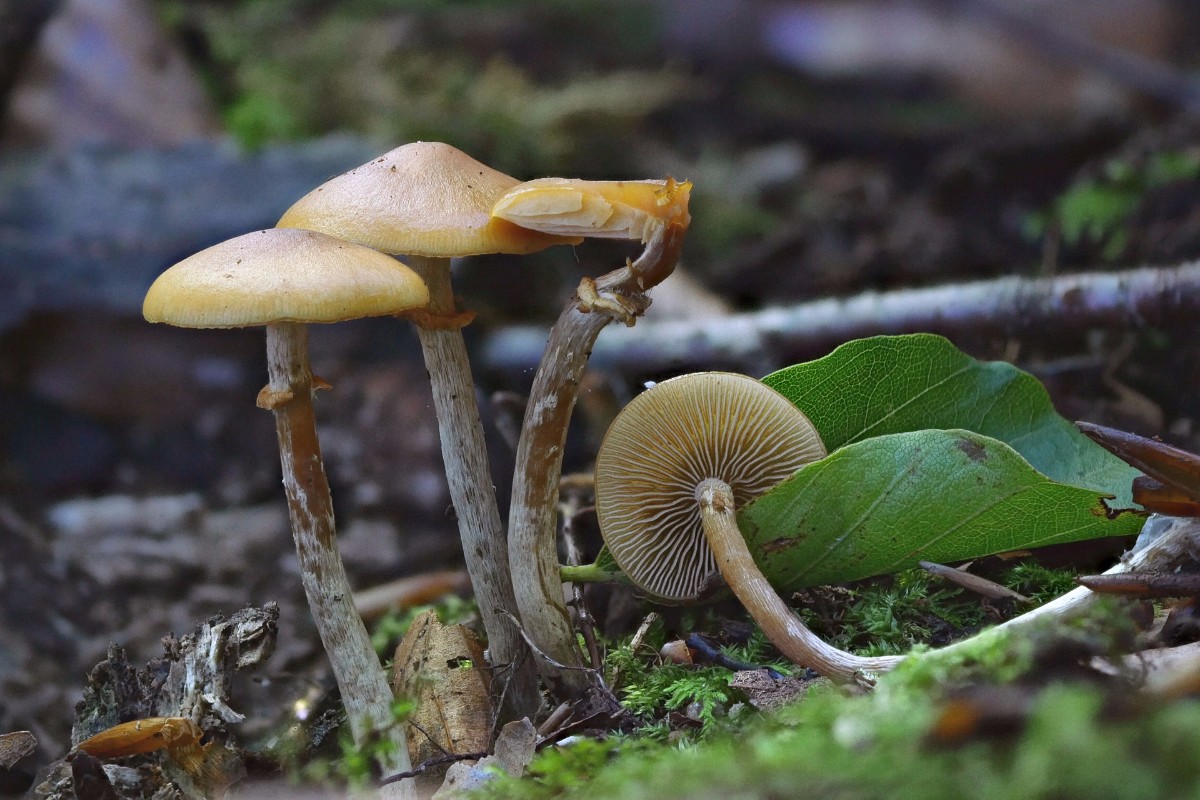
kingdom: Fungi
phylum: Basidiomycota
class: Agaricomycetes
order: Agaricales
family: Hymenogastraceae
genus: Galerina
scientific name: Galerina marginata
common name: randbæltet hjelmhat
